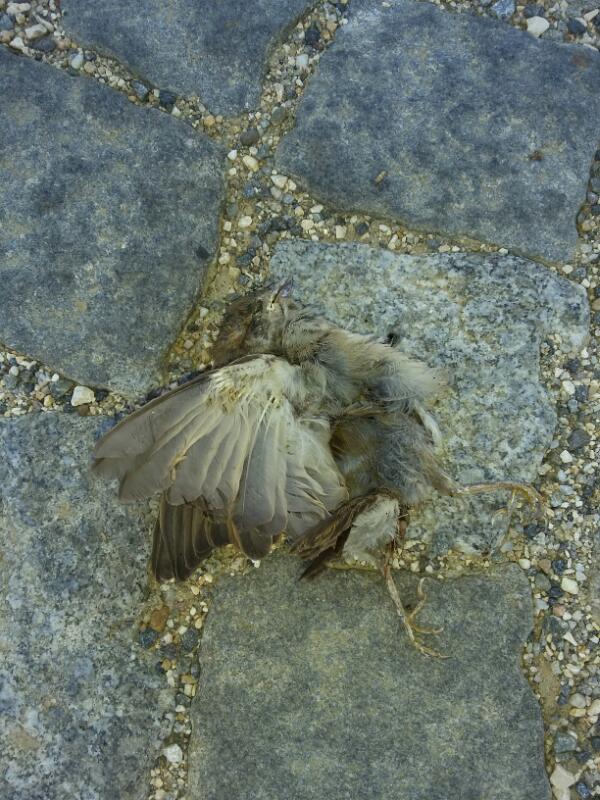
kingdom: Animalia
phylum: Chordata
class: Aves
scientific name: Aves
